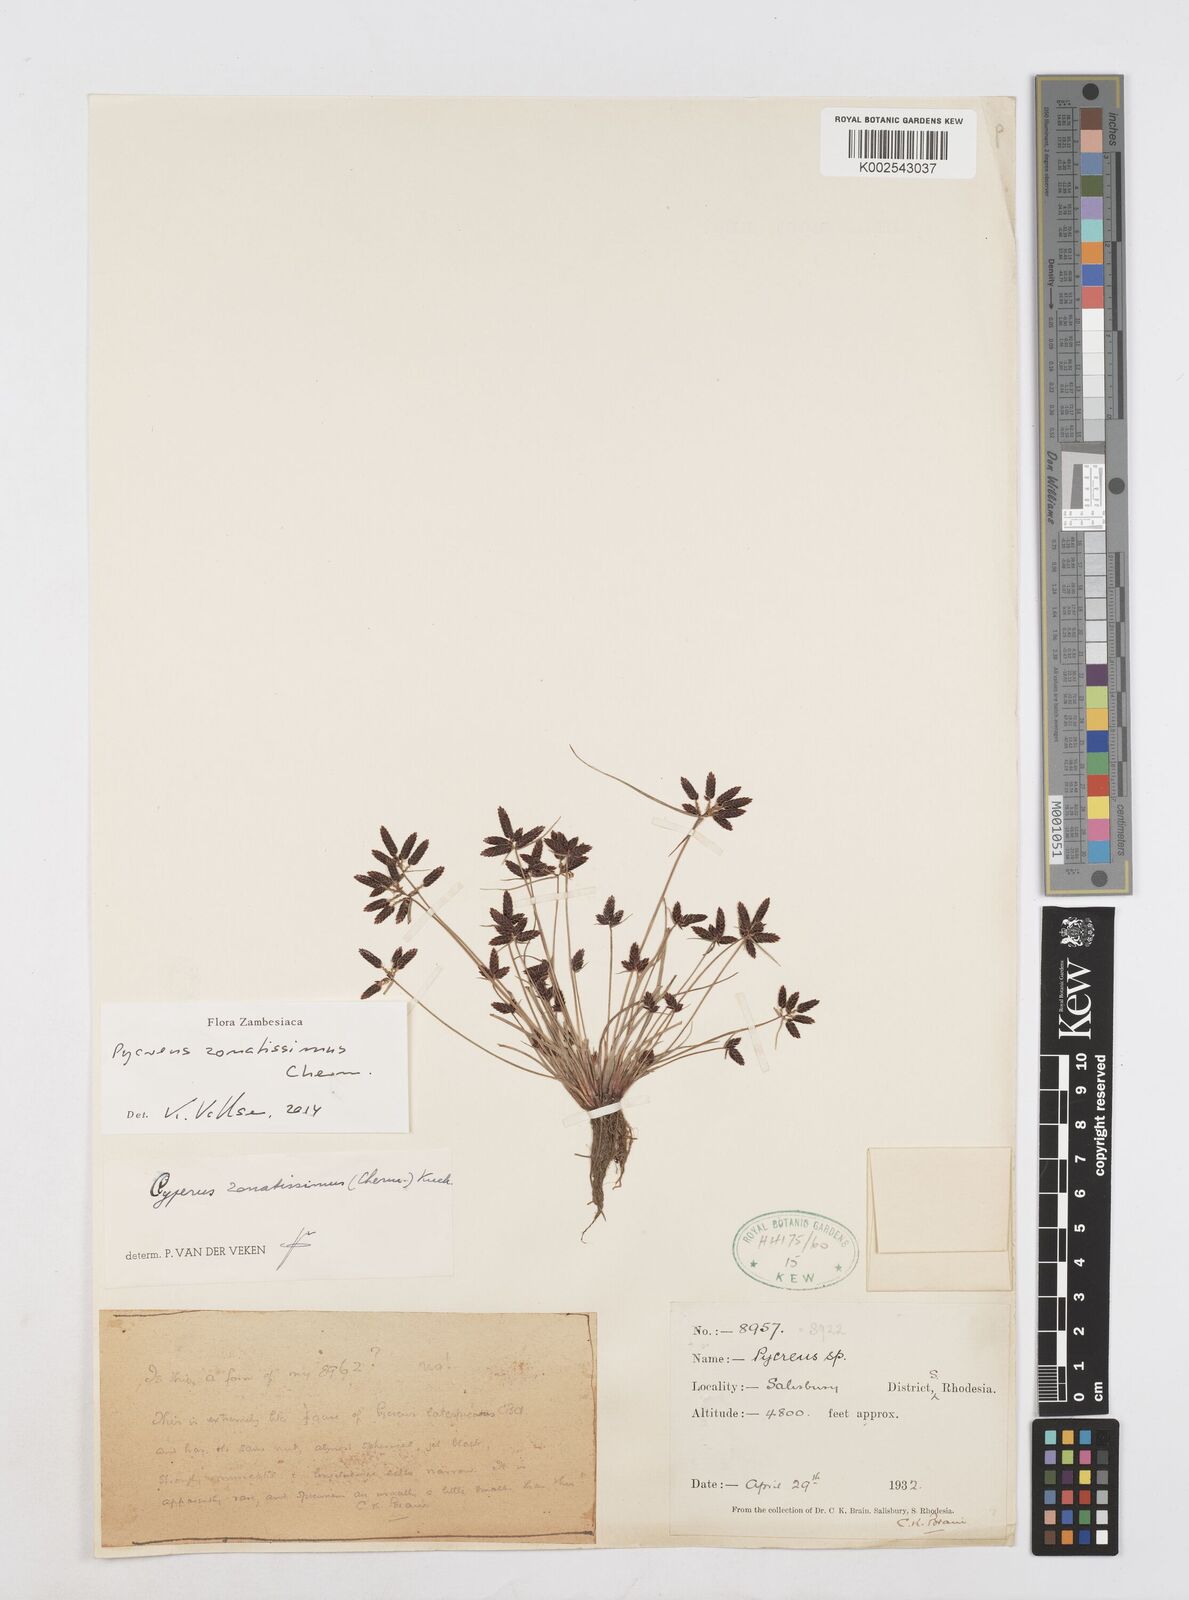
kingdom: Plantae
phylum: Tracheophyta
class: Liliopsida
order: Poales
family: Cyperaceae
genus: Cyperus
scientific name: Cyperus zonatissimus
